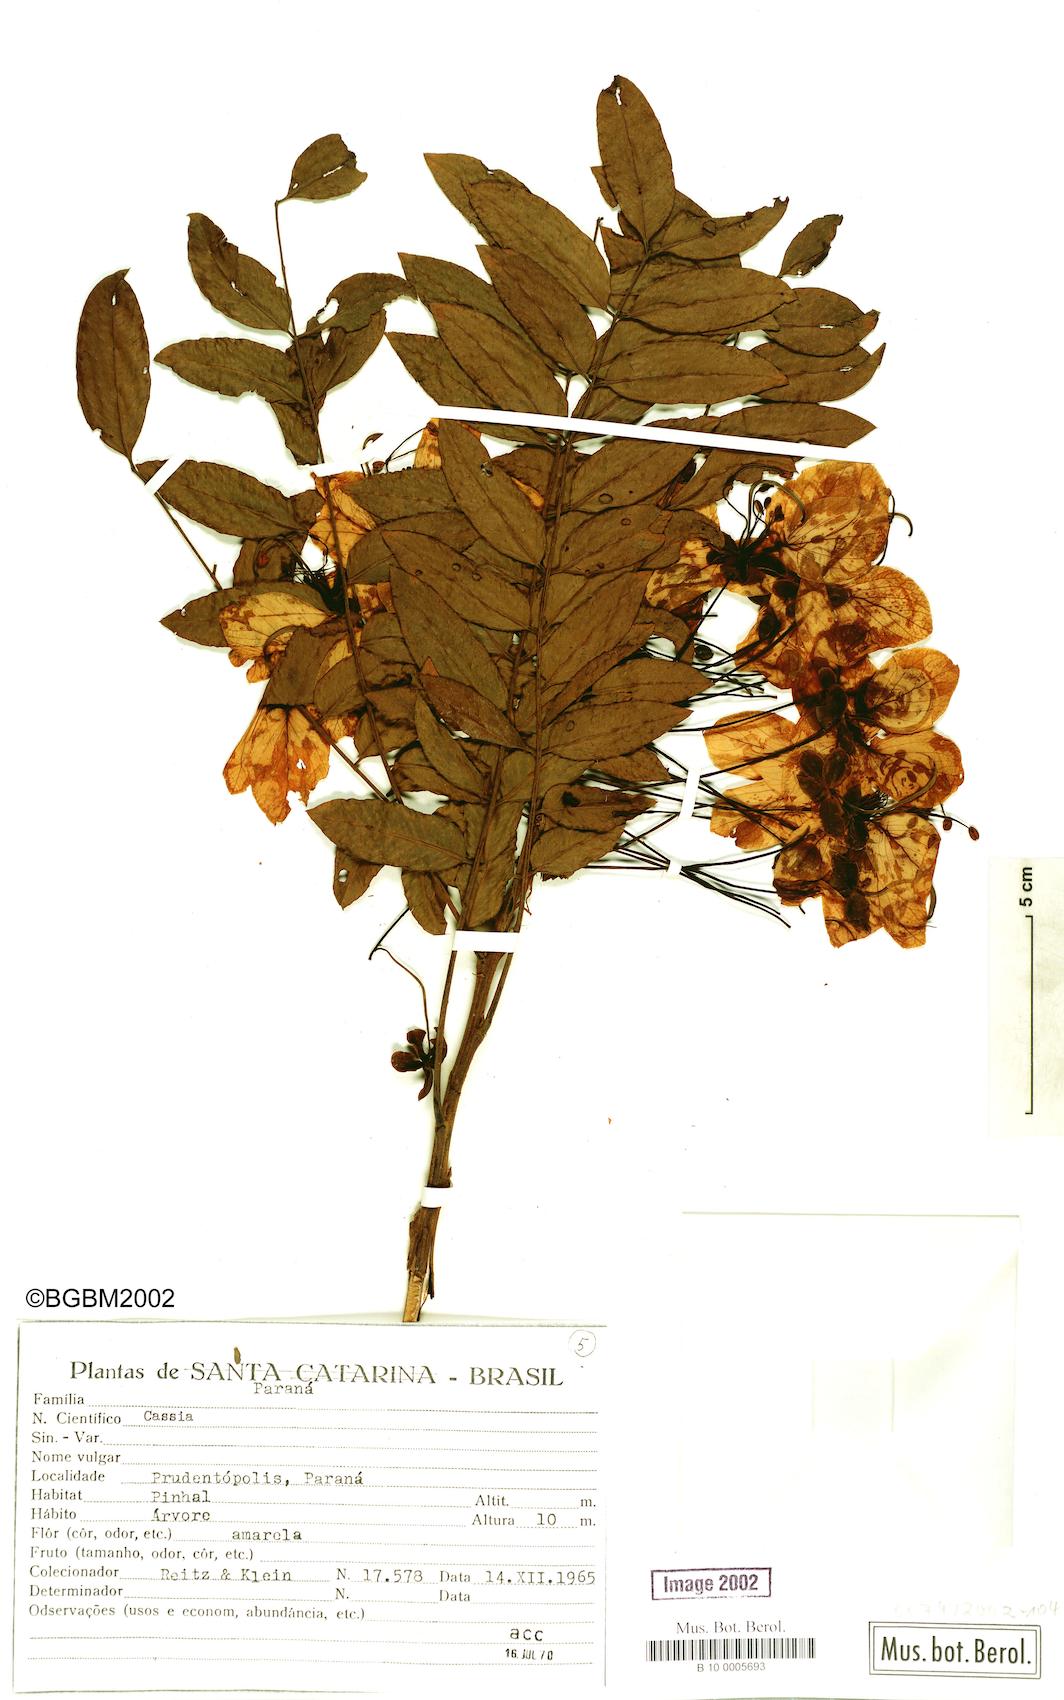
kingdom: Plantae
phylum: Tracheophyta
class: Magnoliopsida
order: Fabales
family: Fabaceae
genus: Cassia
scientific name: Cassia
